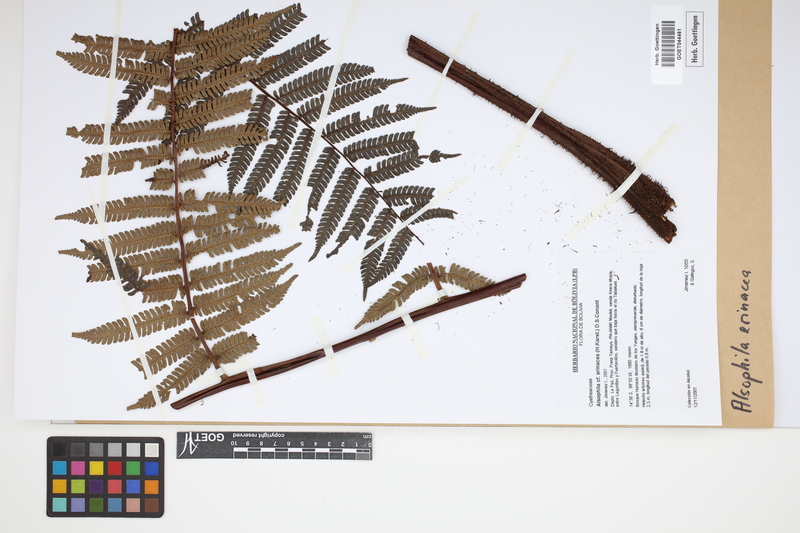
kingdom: Plantae
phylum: Tracheophyta
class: Polypodiopsida
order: Cyatheales
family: Cyatheaceae
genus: Alsophila
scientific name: Alsophila erinacea
